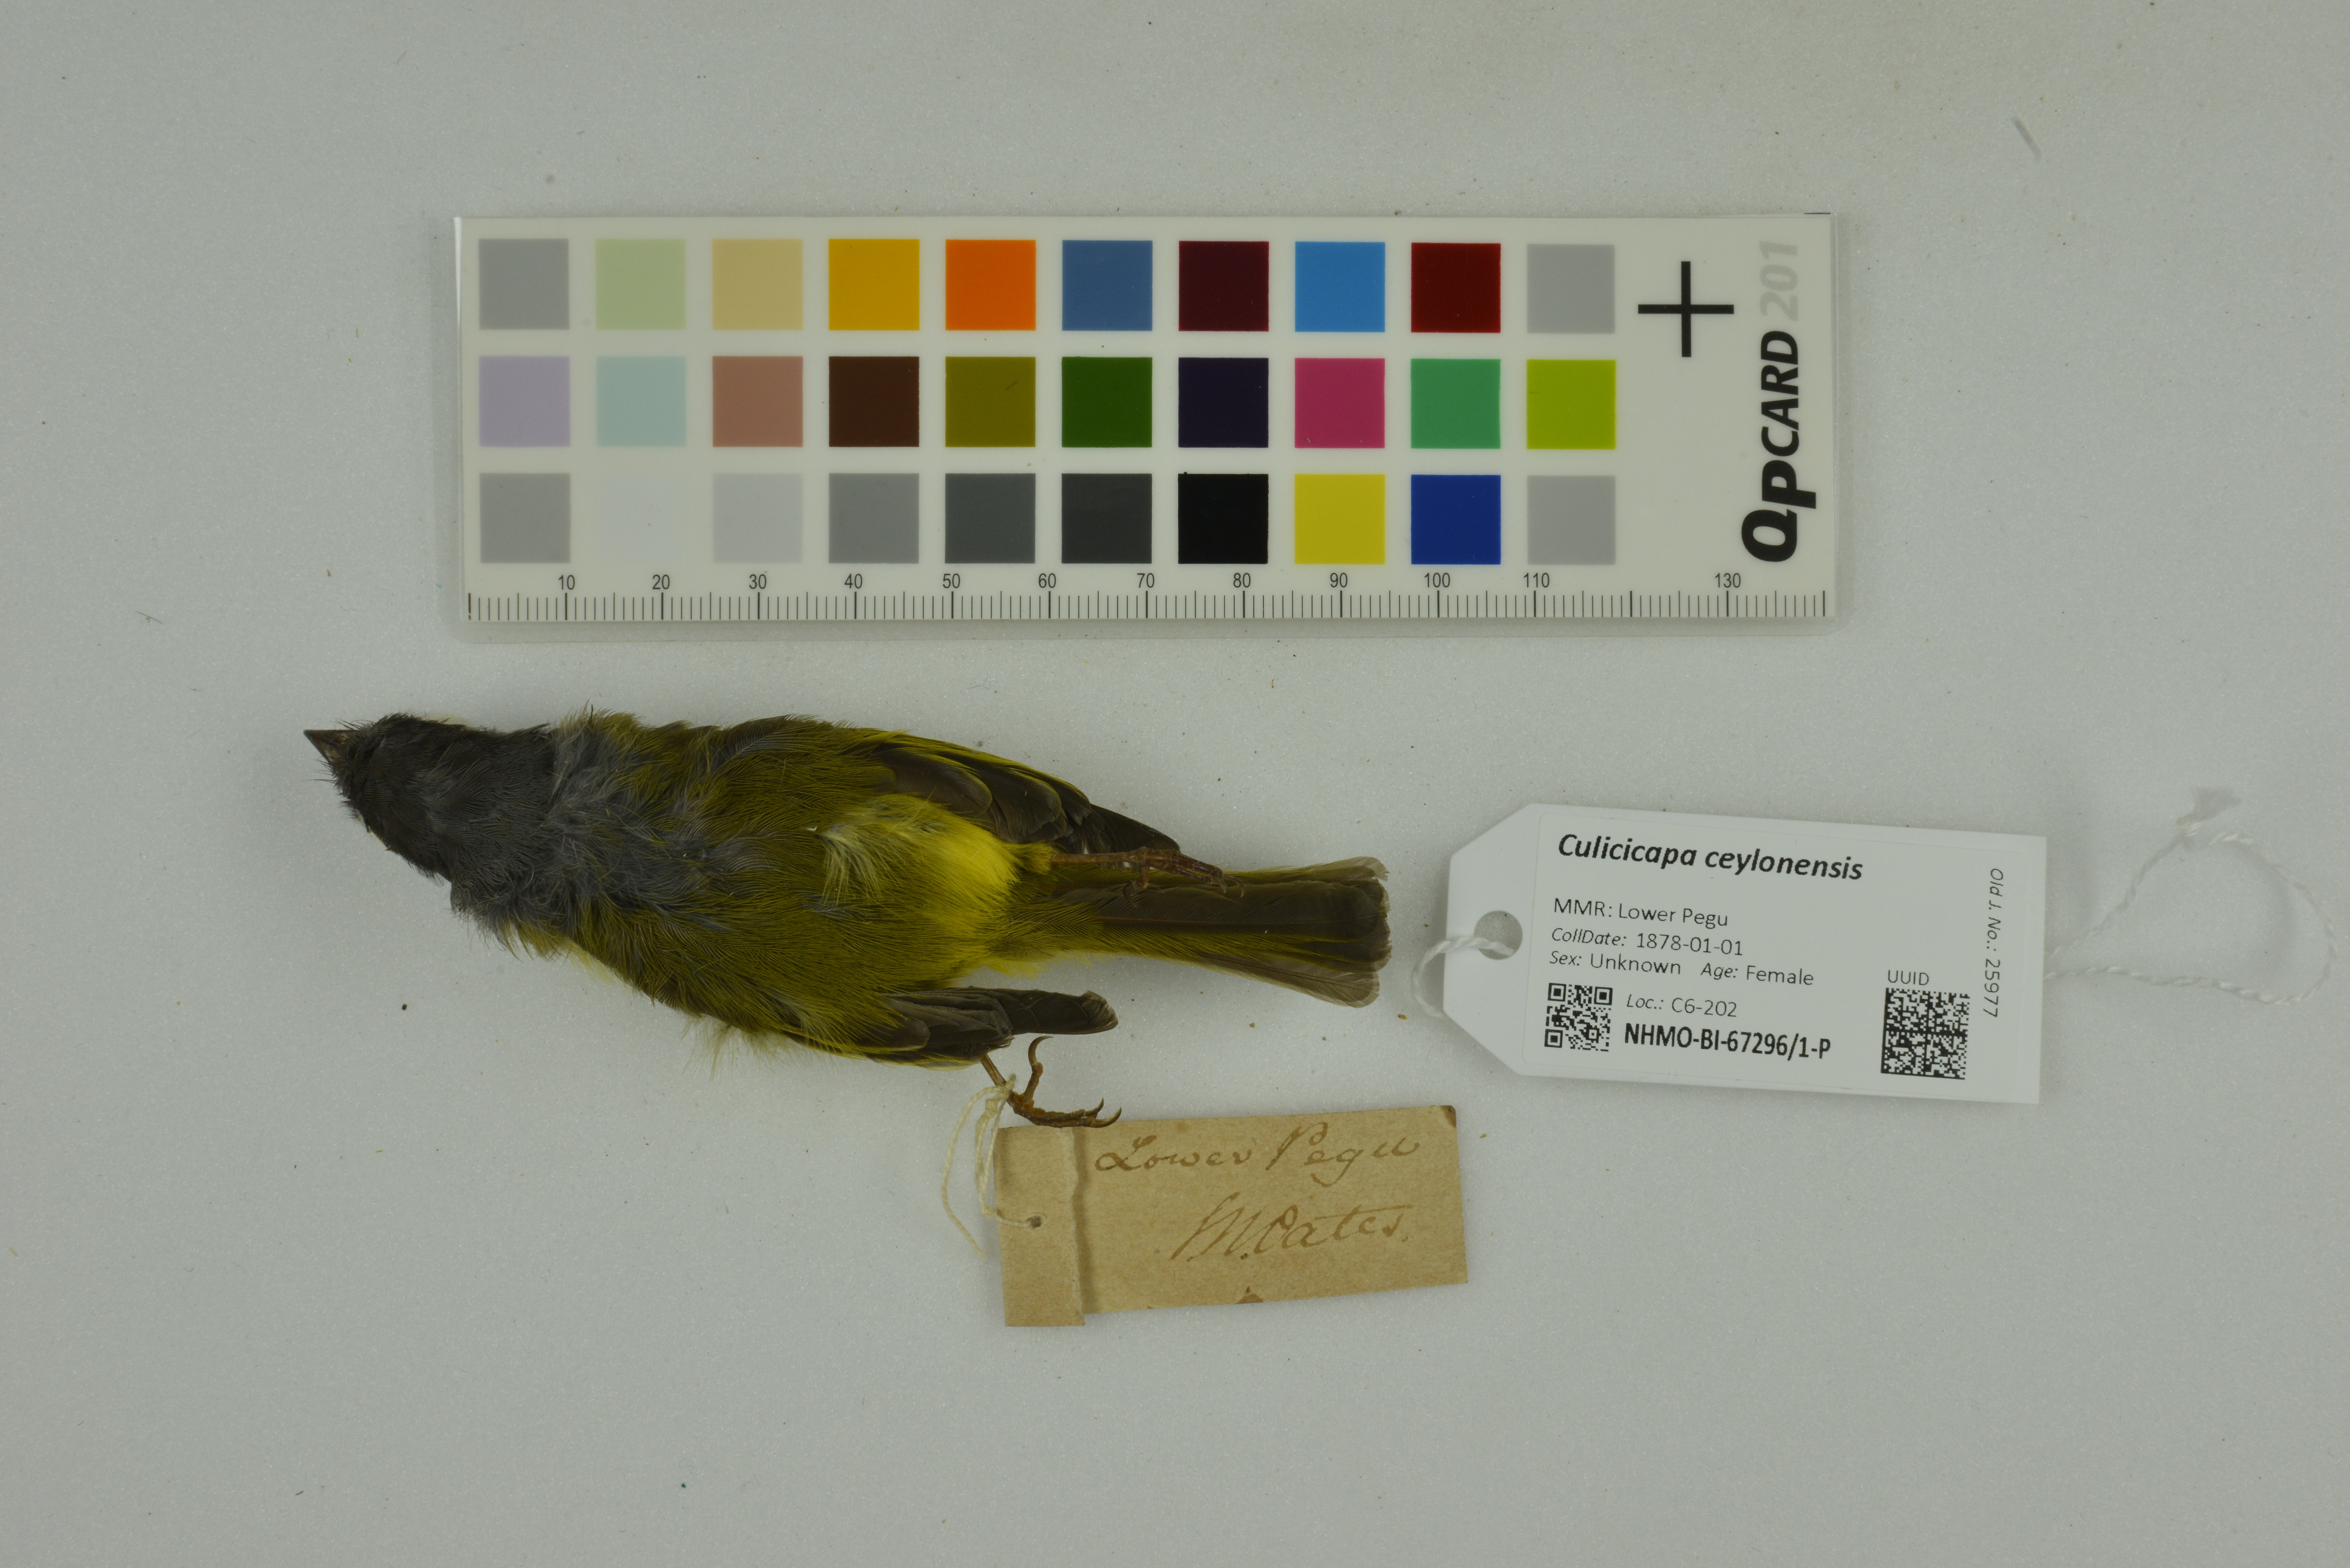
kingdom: Animalia
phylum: Chordata
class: Aves
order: Passeriformes
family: Stenostiridae
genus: Culicicapa
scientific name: Culicicapa ceylonensis
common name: Grey-headed canary-flycatcher
